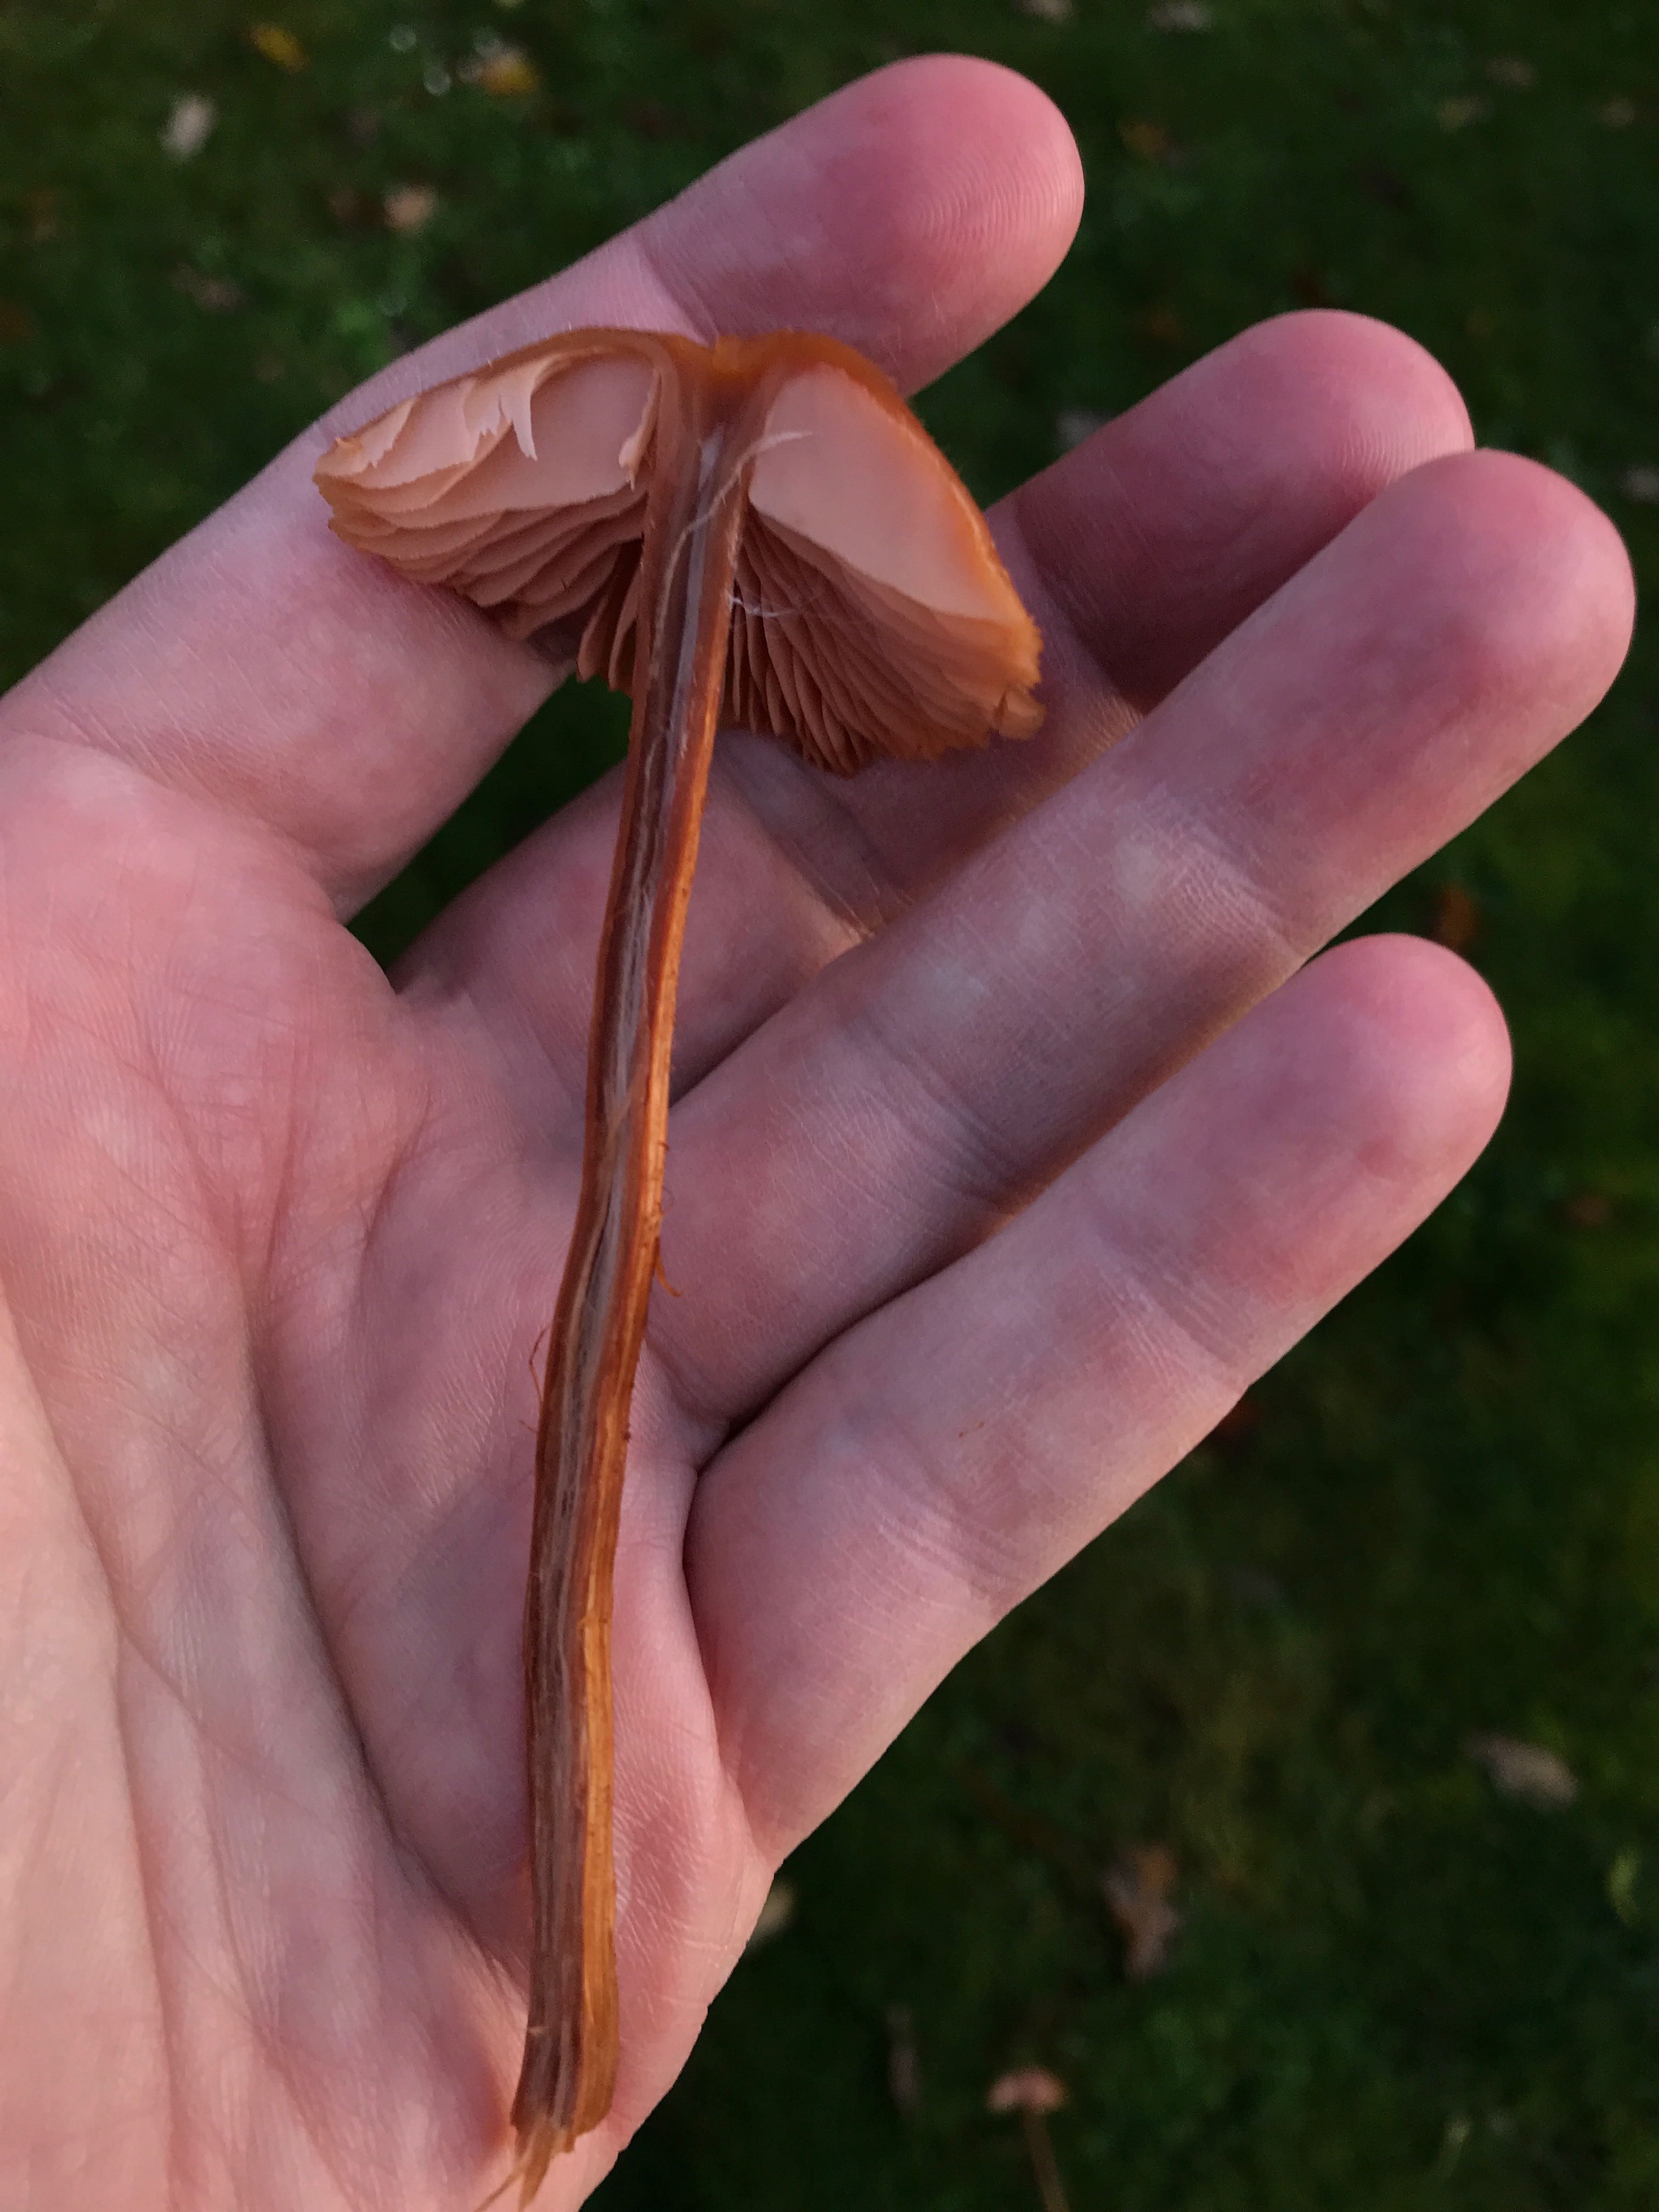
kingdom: Fungi
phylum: Basidiomycota
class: Agaricomycetes
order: Agaricales
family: Hydnangiaceae
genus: Laccaria
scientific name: Laccaria
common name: ametysthat
